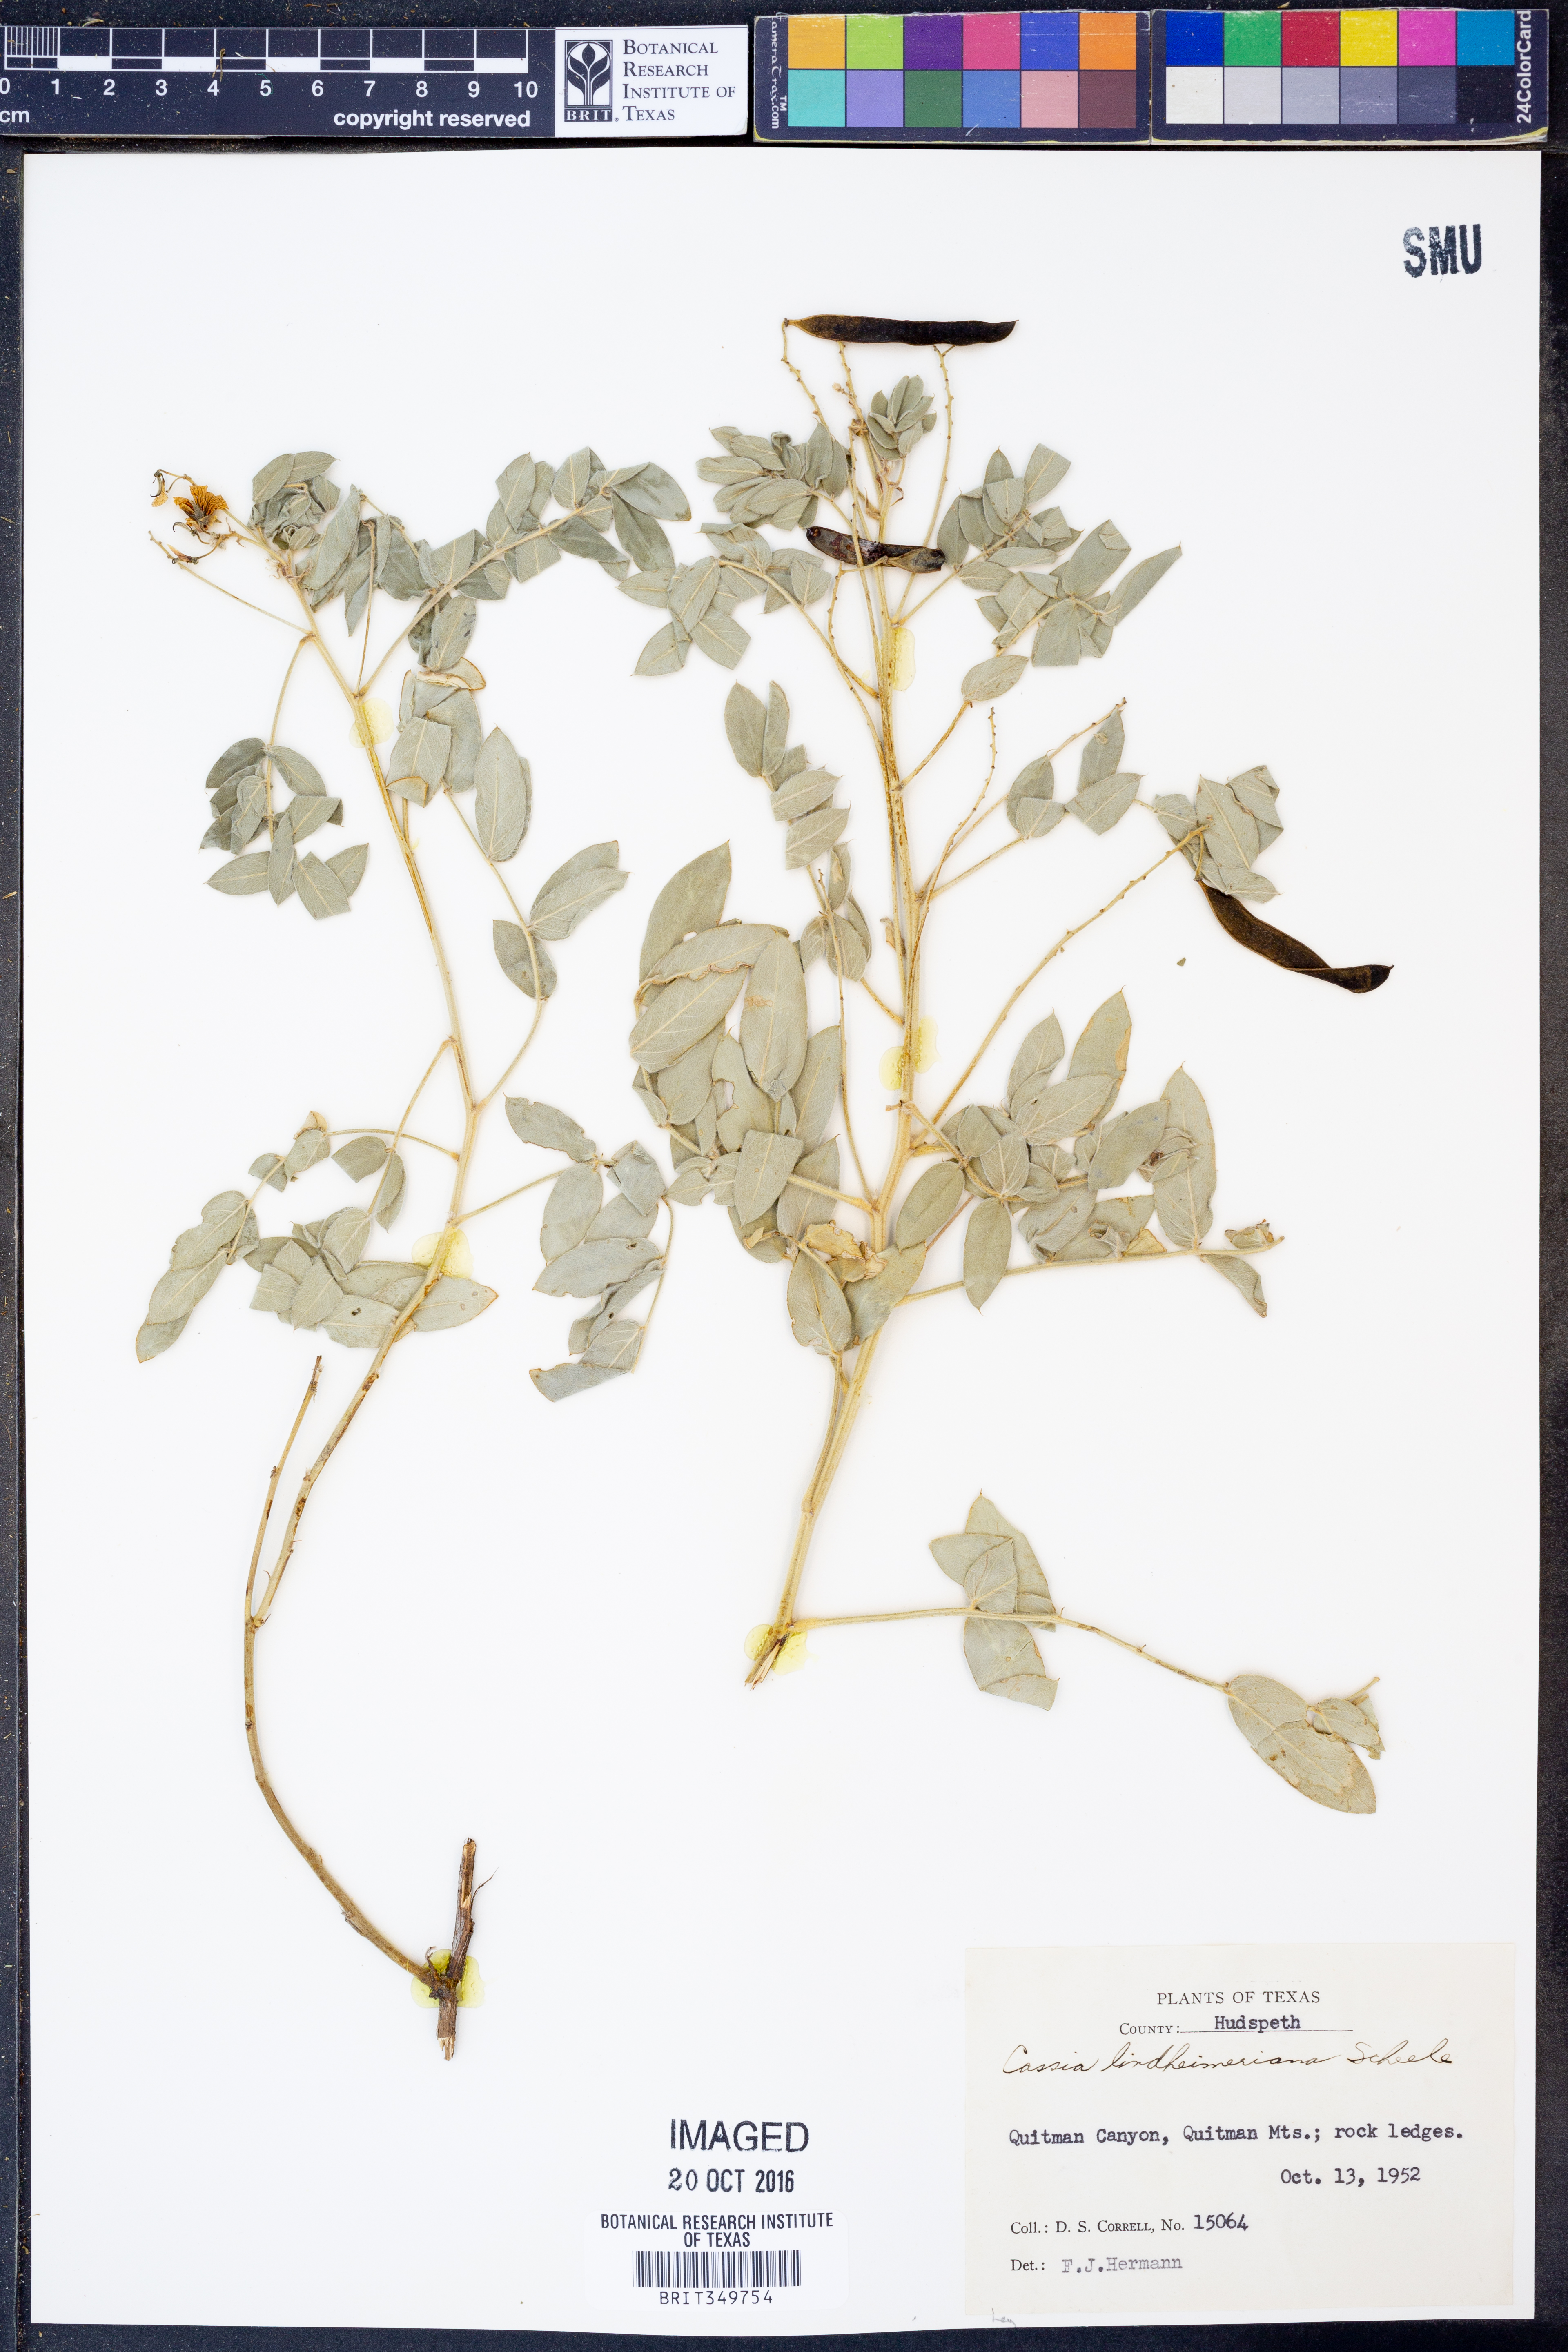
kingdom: Plantae
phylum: Tracheophyta
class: Magnoliopsida
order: Fabales
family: Fabaceae
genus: Senna
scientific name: Senna lindheimeriana
